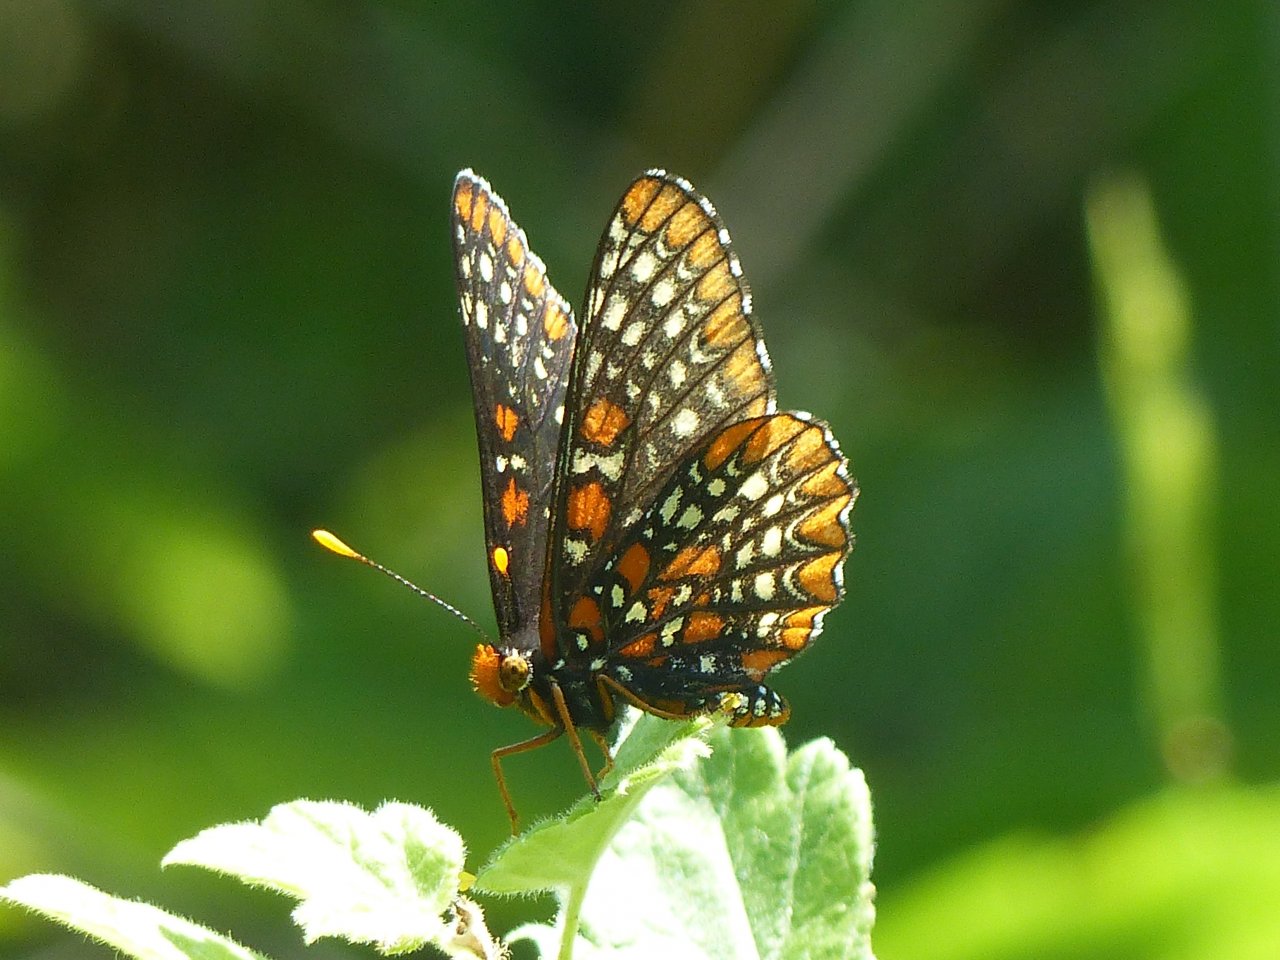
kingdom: Animalia
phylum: Arthropoda
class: Insecta
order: Lepidoptera
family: Nymphalidae
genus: Euphydryas
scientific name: Euphydryas phaeton
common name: Baltimore Checkerspot
